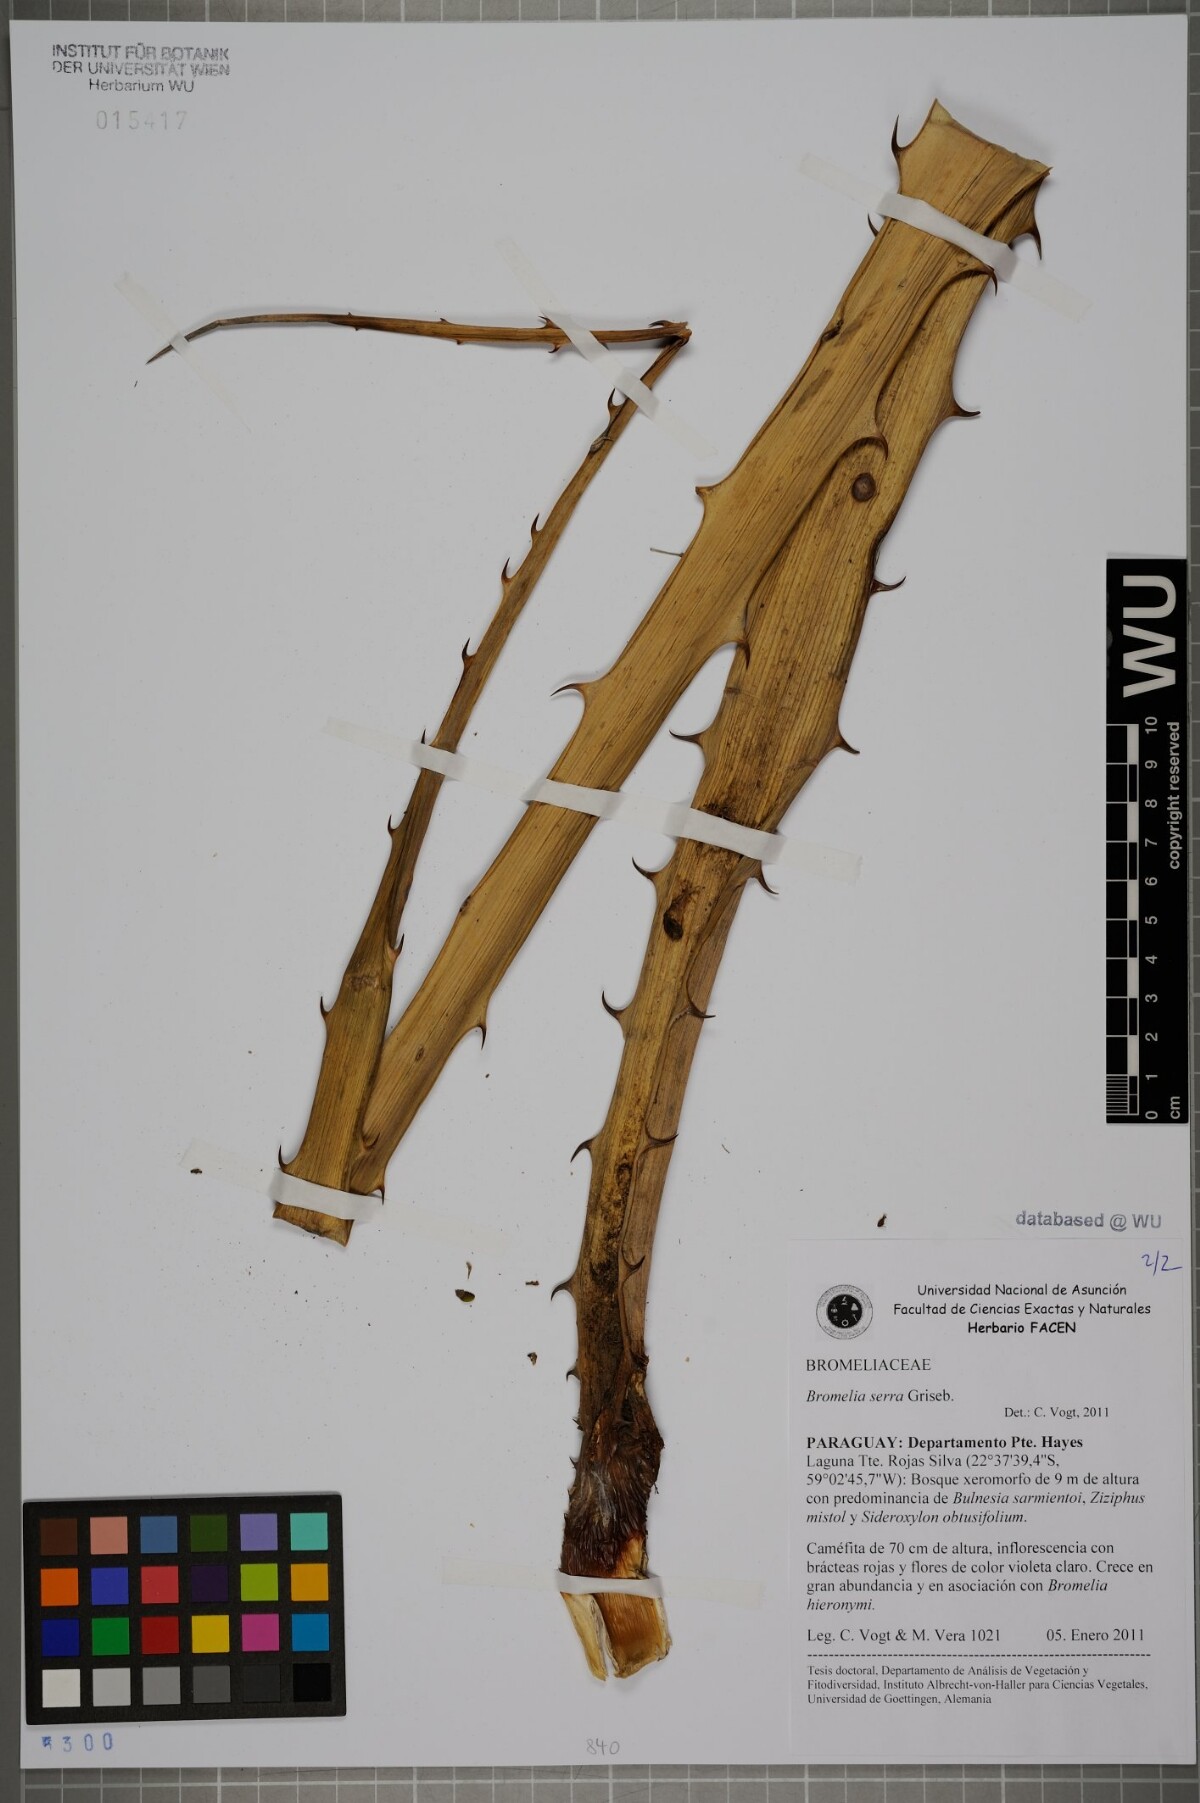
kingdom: Plantae
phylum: Tracheophyta
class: Liliopsida
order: Poales
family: Bromeliaceae
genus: Bromelia
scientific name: Bromelia serra
